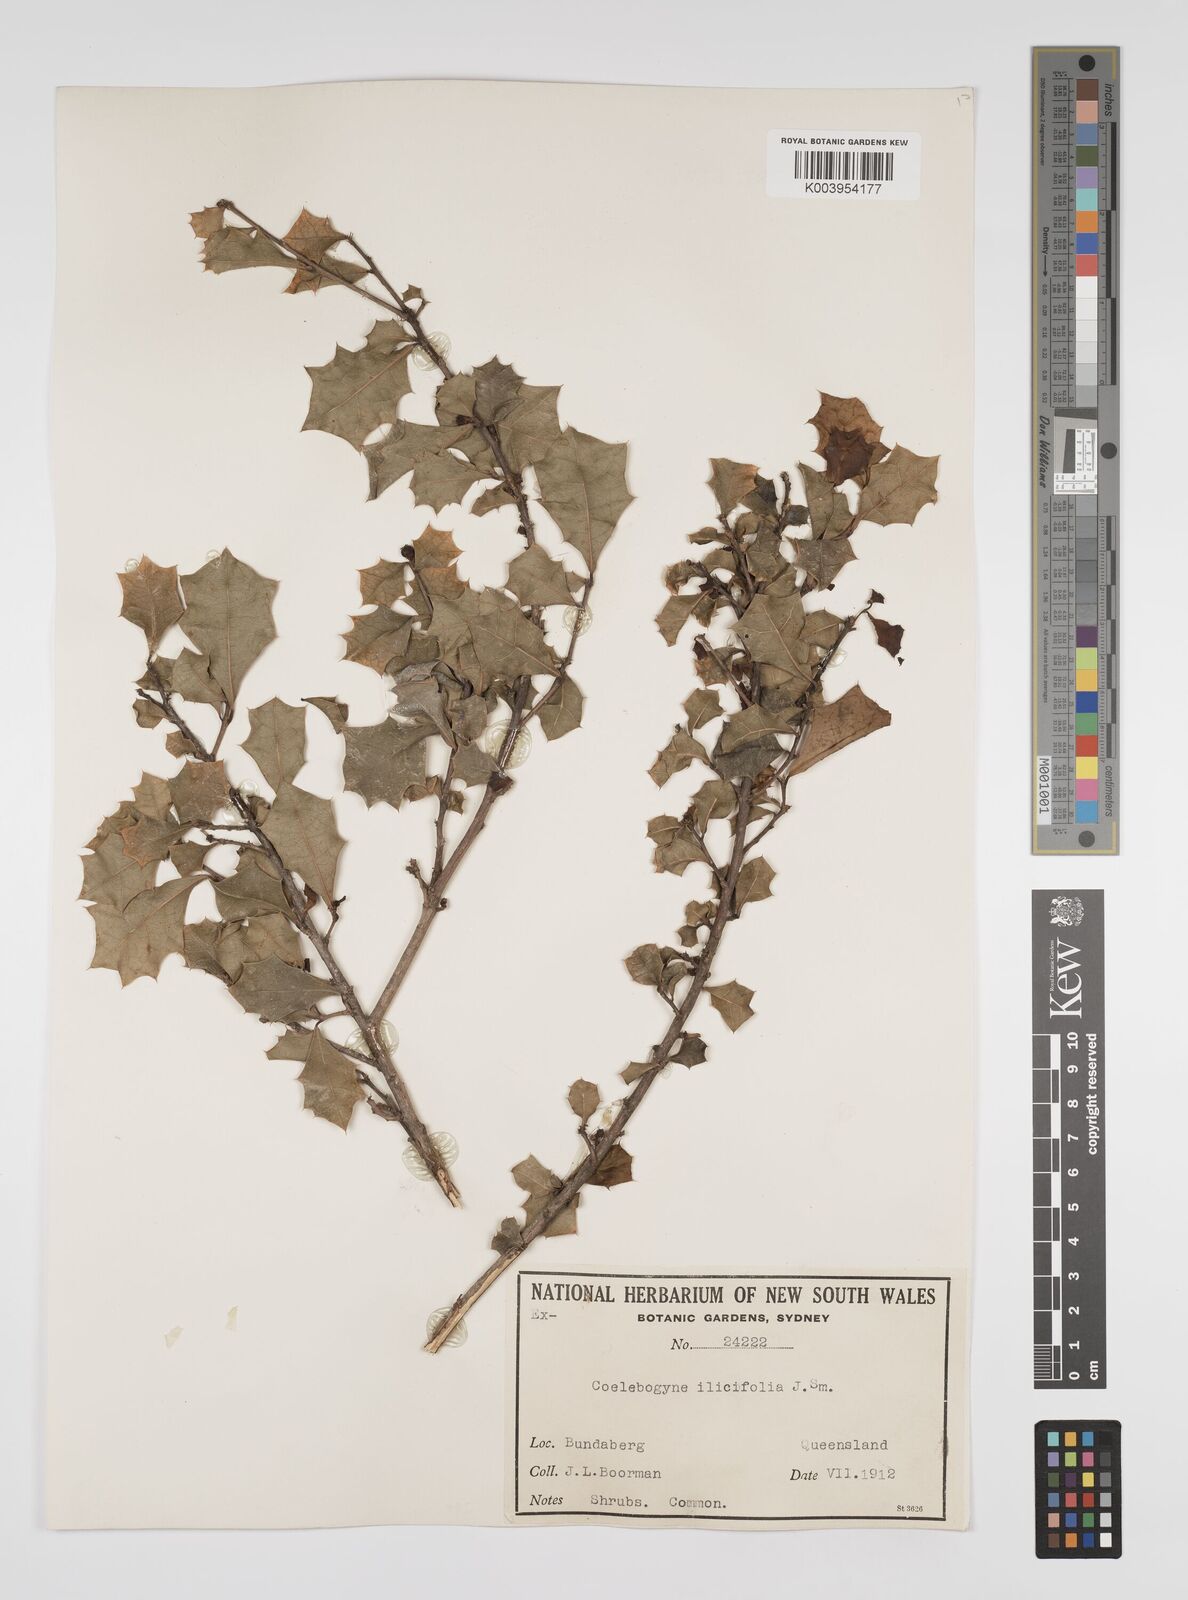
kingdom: Plantae
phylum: Tracheophyta
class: Magnoliopsida
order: Malpighiales
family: Euphorbiaceae
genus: Alchornea
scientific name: Alchornea ilicifolia
